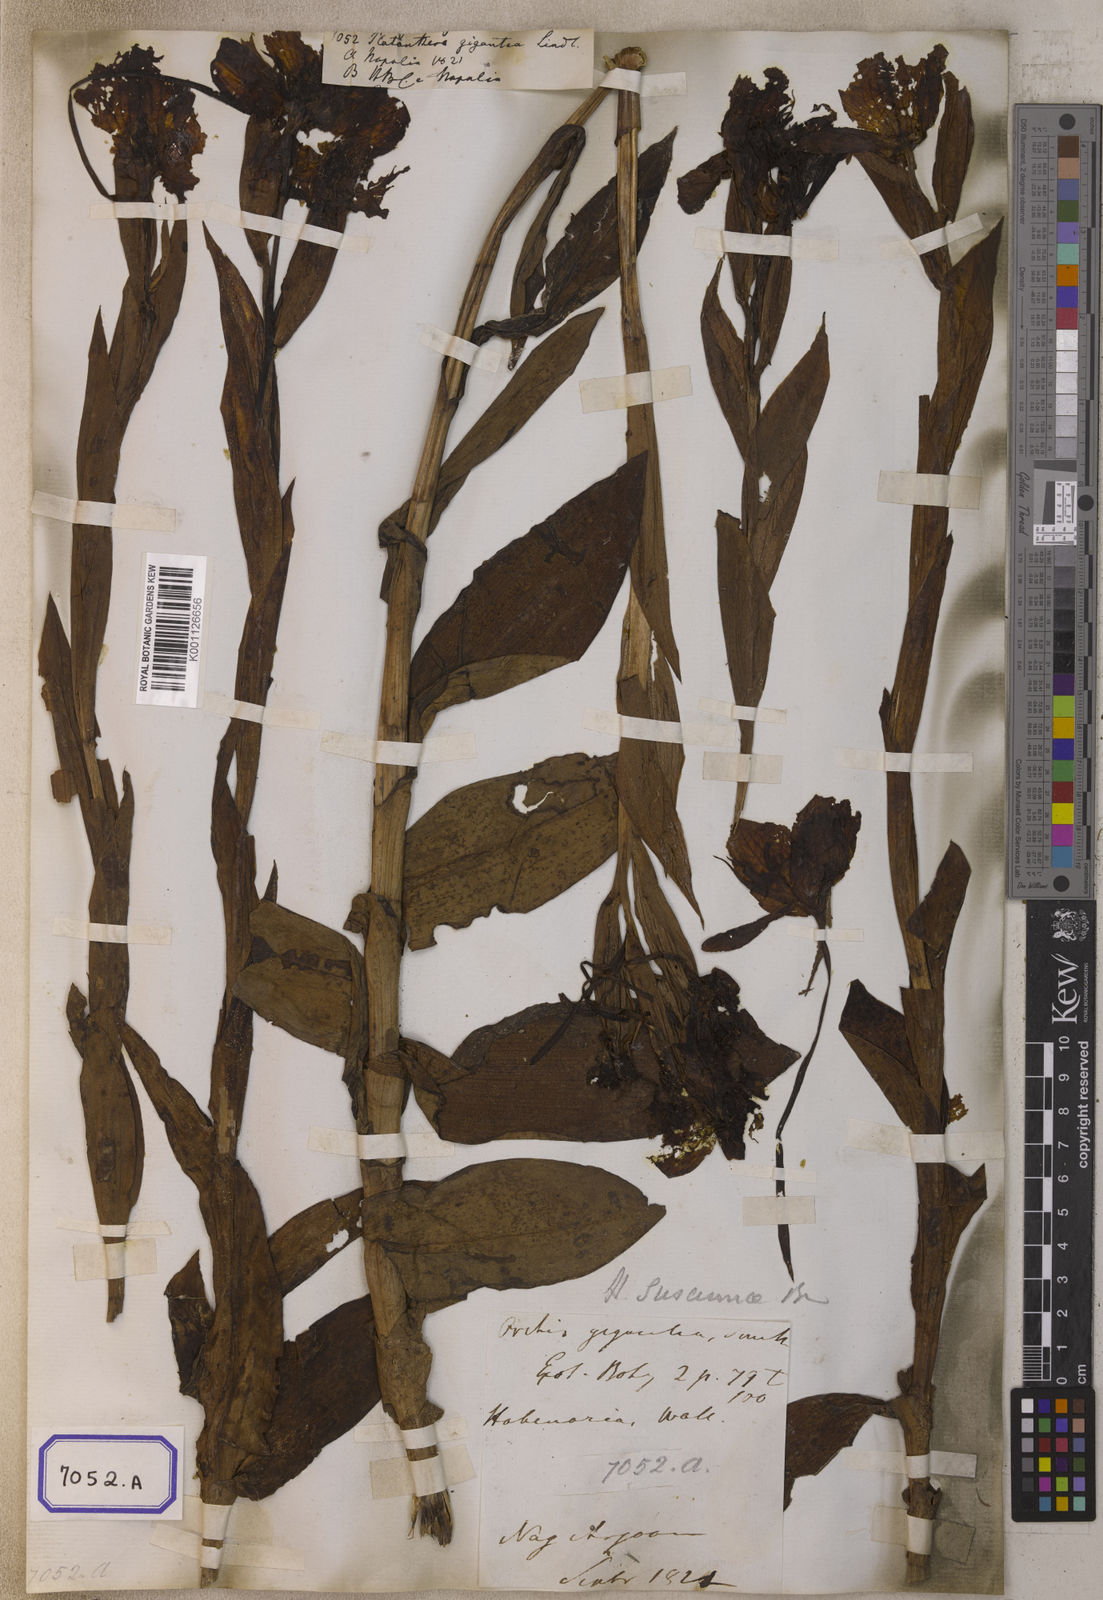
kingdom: Plantae
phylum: Tracheophyta
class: Liliopsida
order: Asparagales
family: Orchidaceae
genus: Platanthera
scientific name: Platanthera
